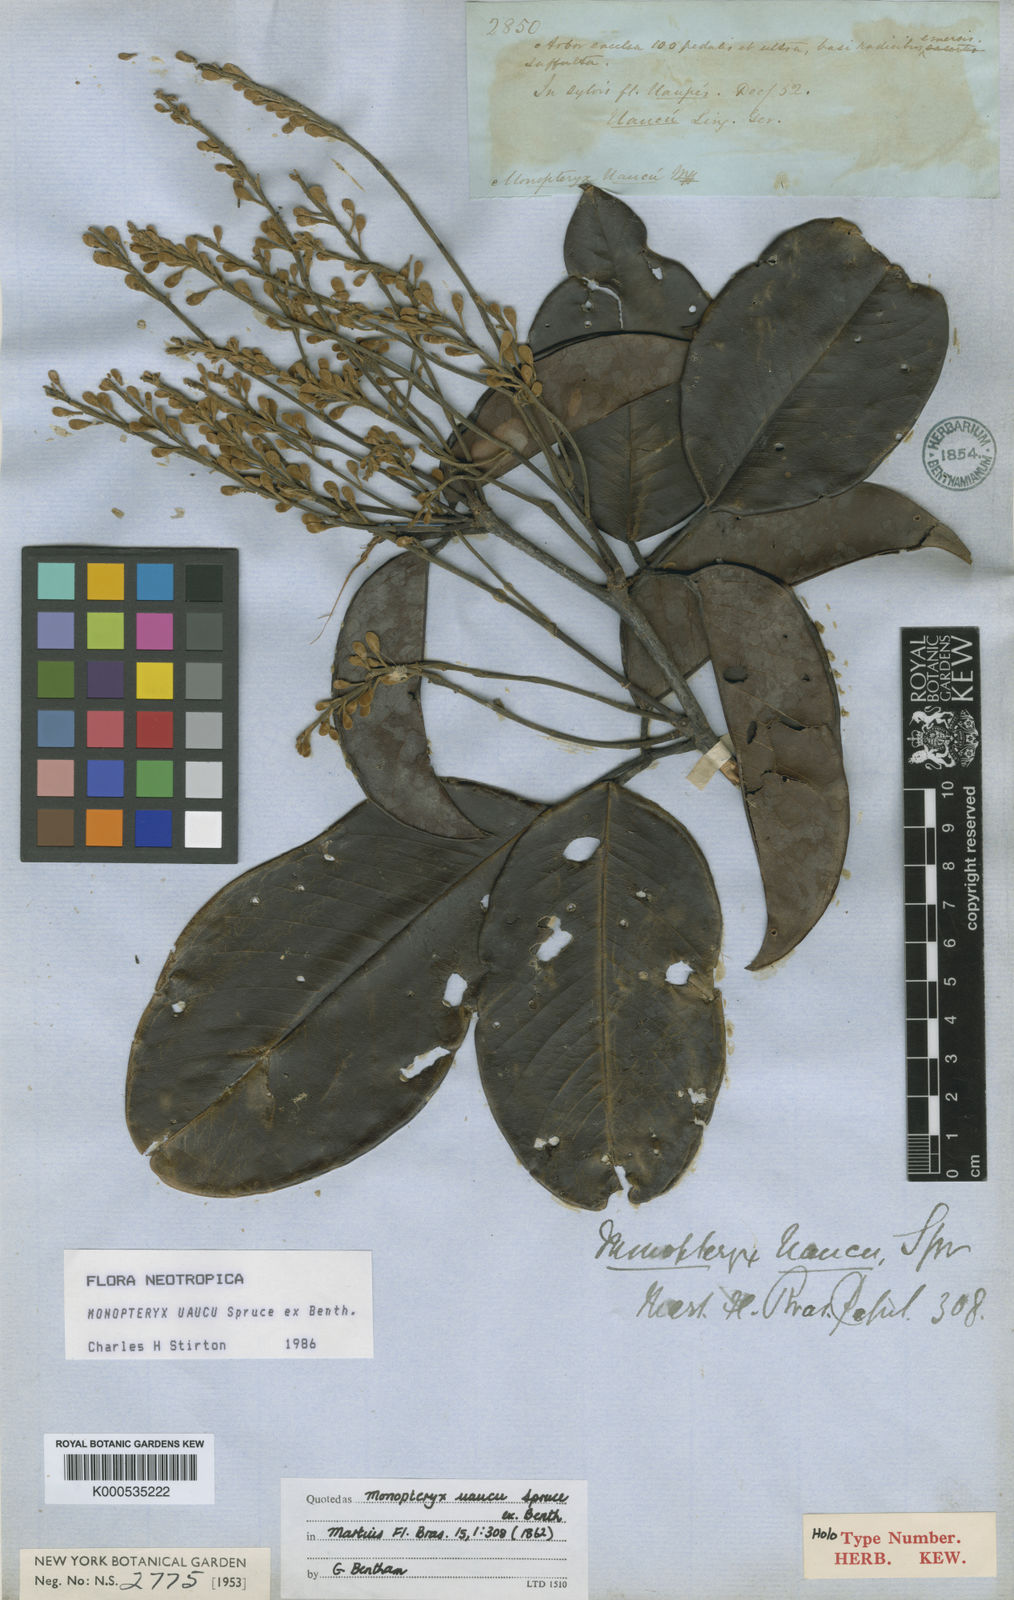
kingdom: Plantae
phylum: Tracheophyta
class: Magnoliopsida
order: Fabales
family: Fabaceae
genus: Monopteryx
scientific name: Monopteryx uaucu
